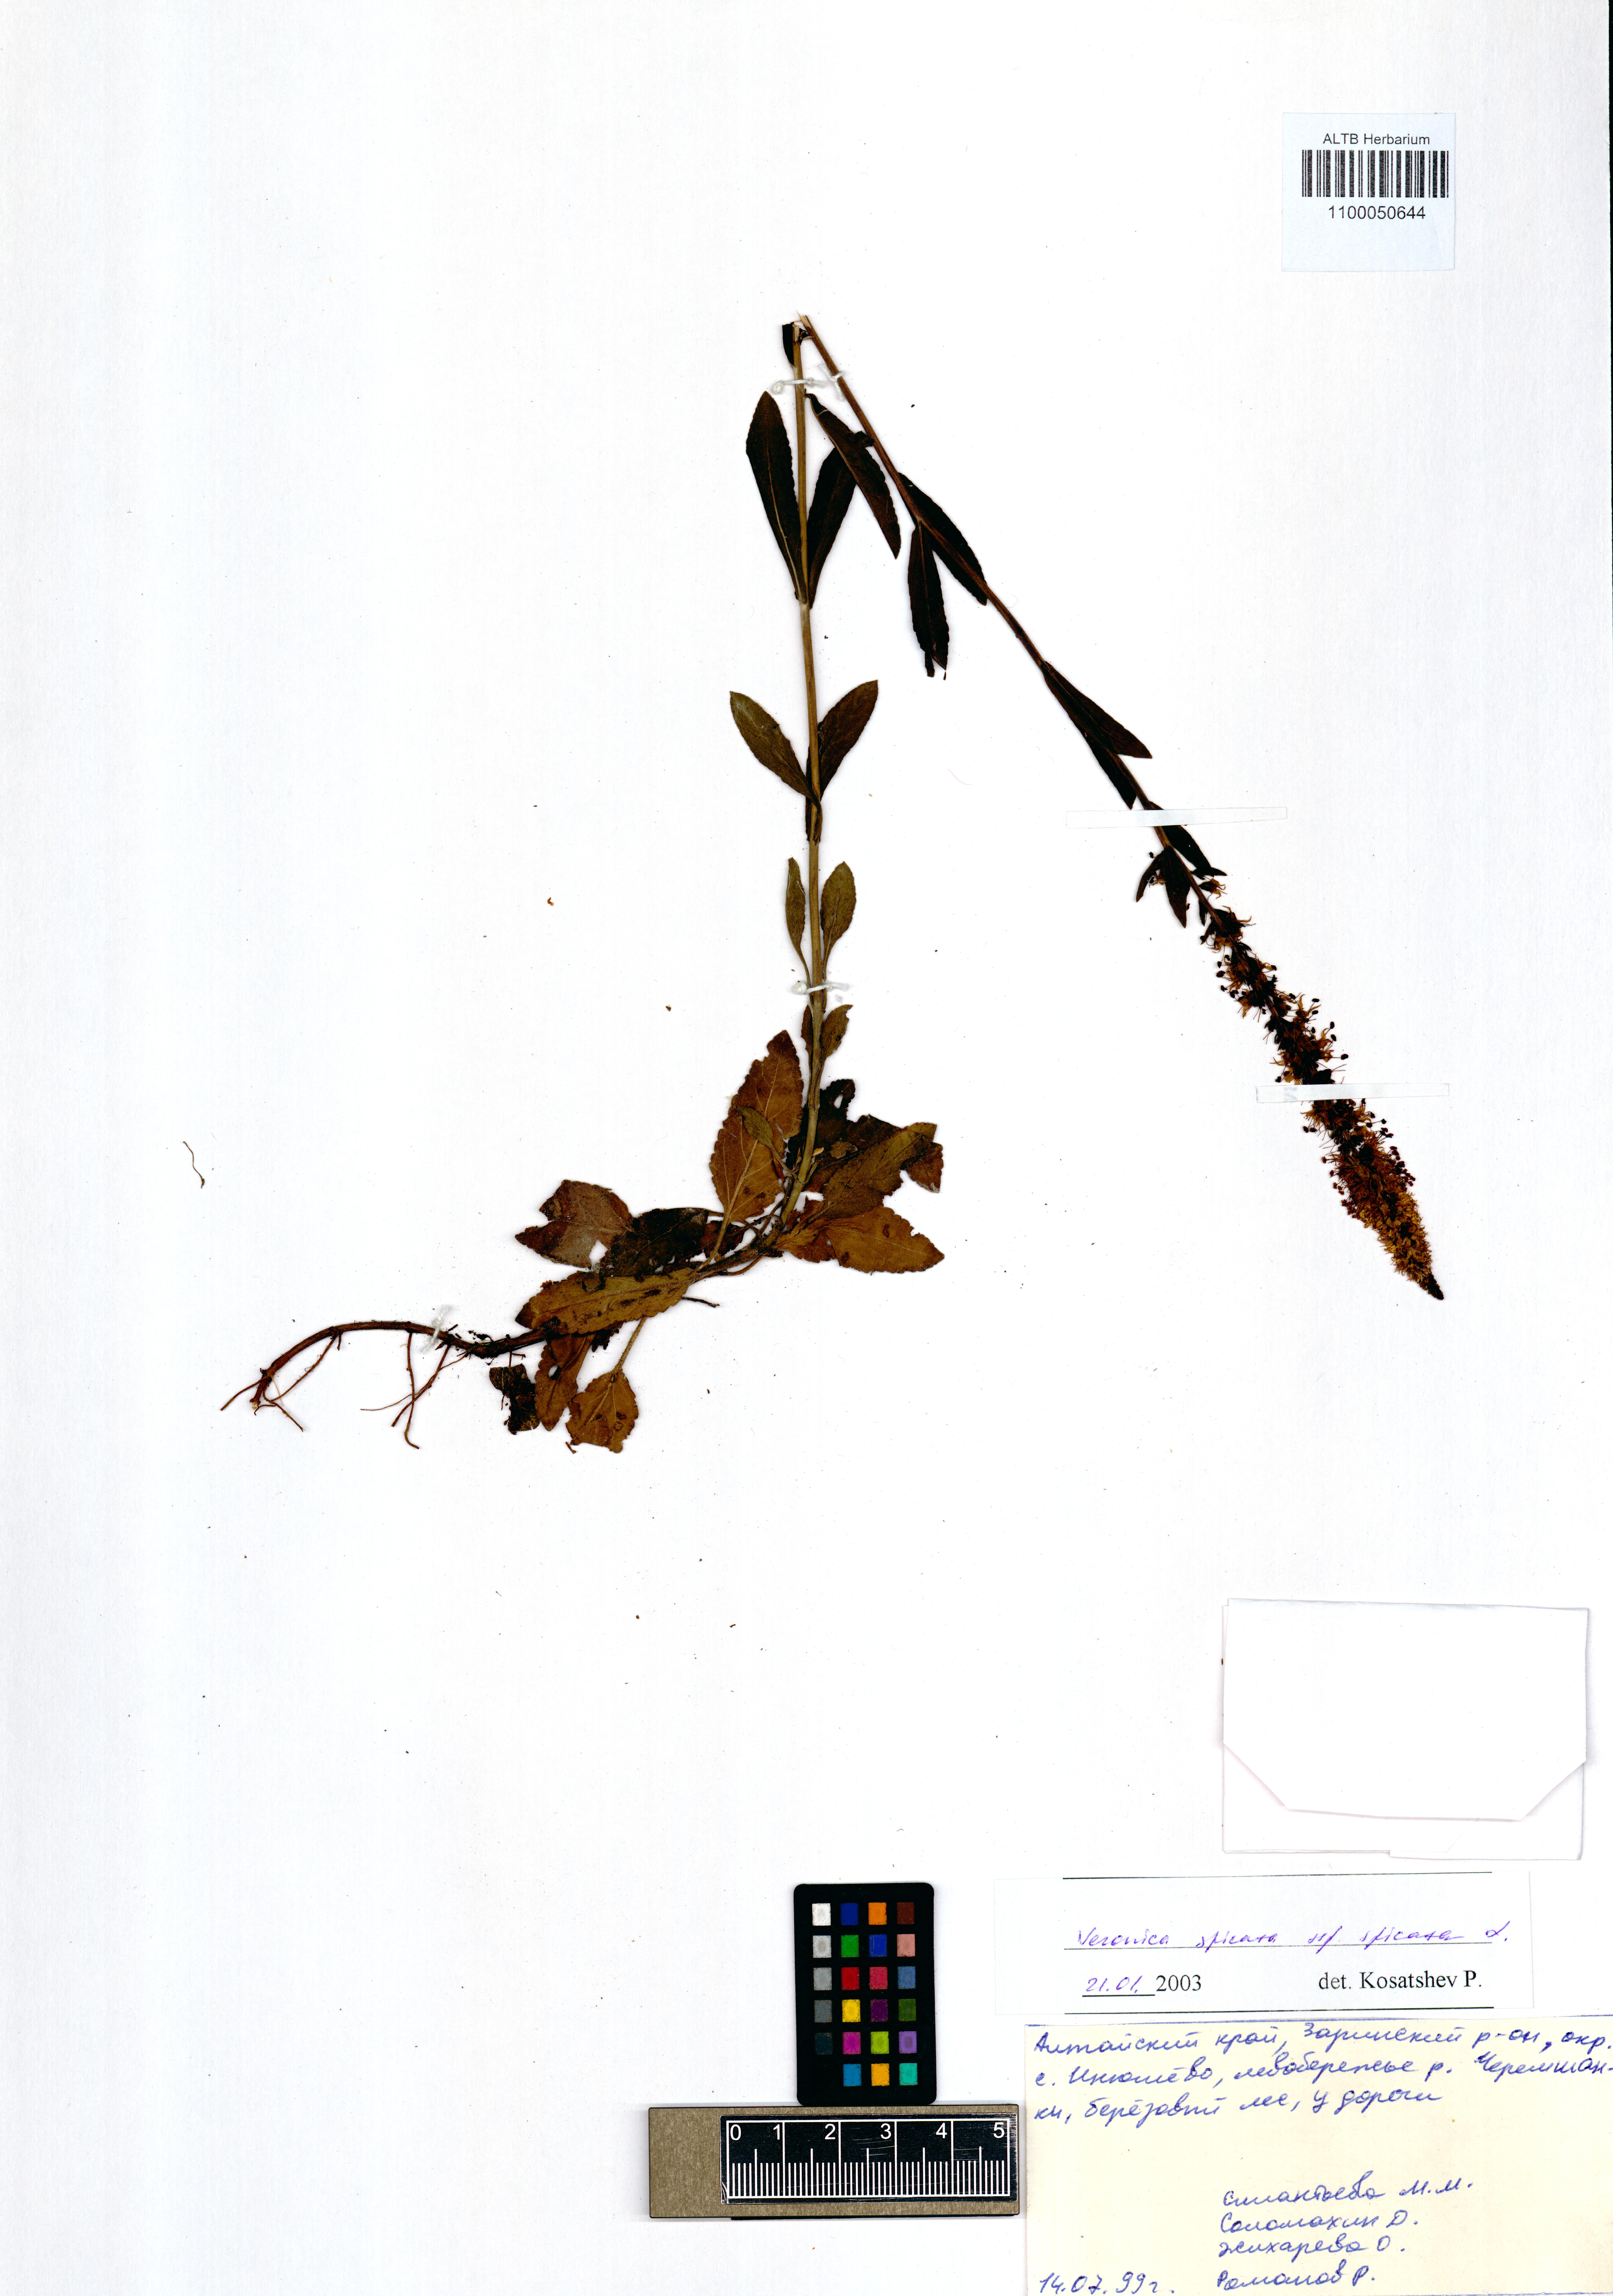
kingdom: Plantae
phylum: Tracheophyta
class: Magnoliopsida
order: Lamiales
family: Plantaginaceae
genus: Veronica
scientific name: Veronica spicata
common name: Spiked speedwell
